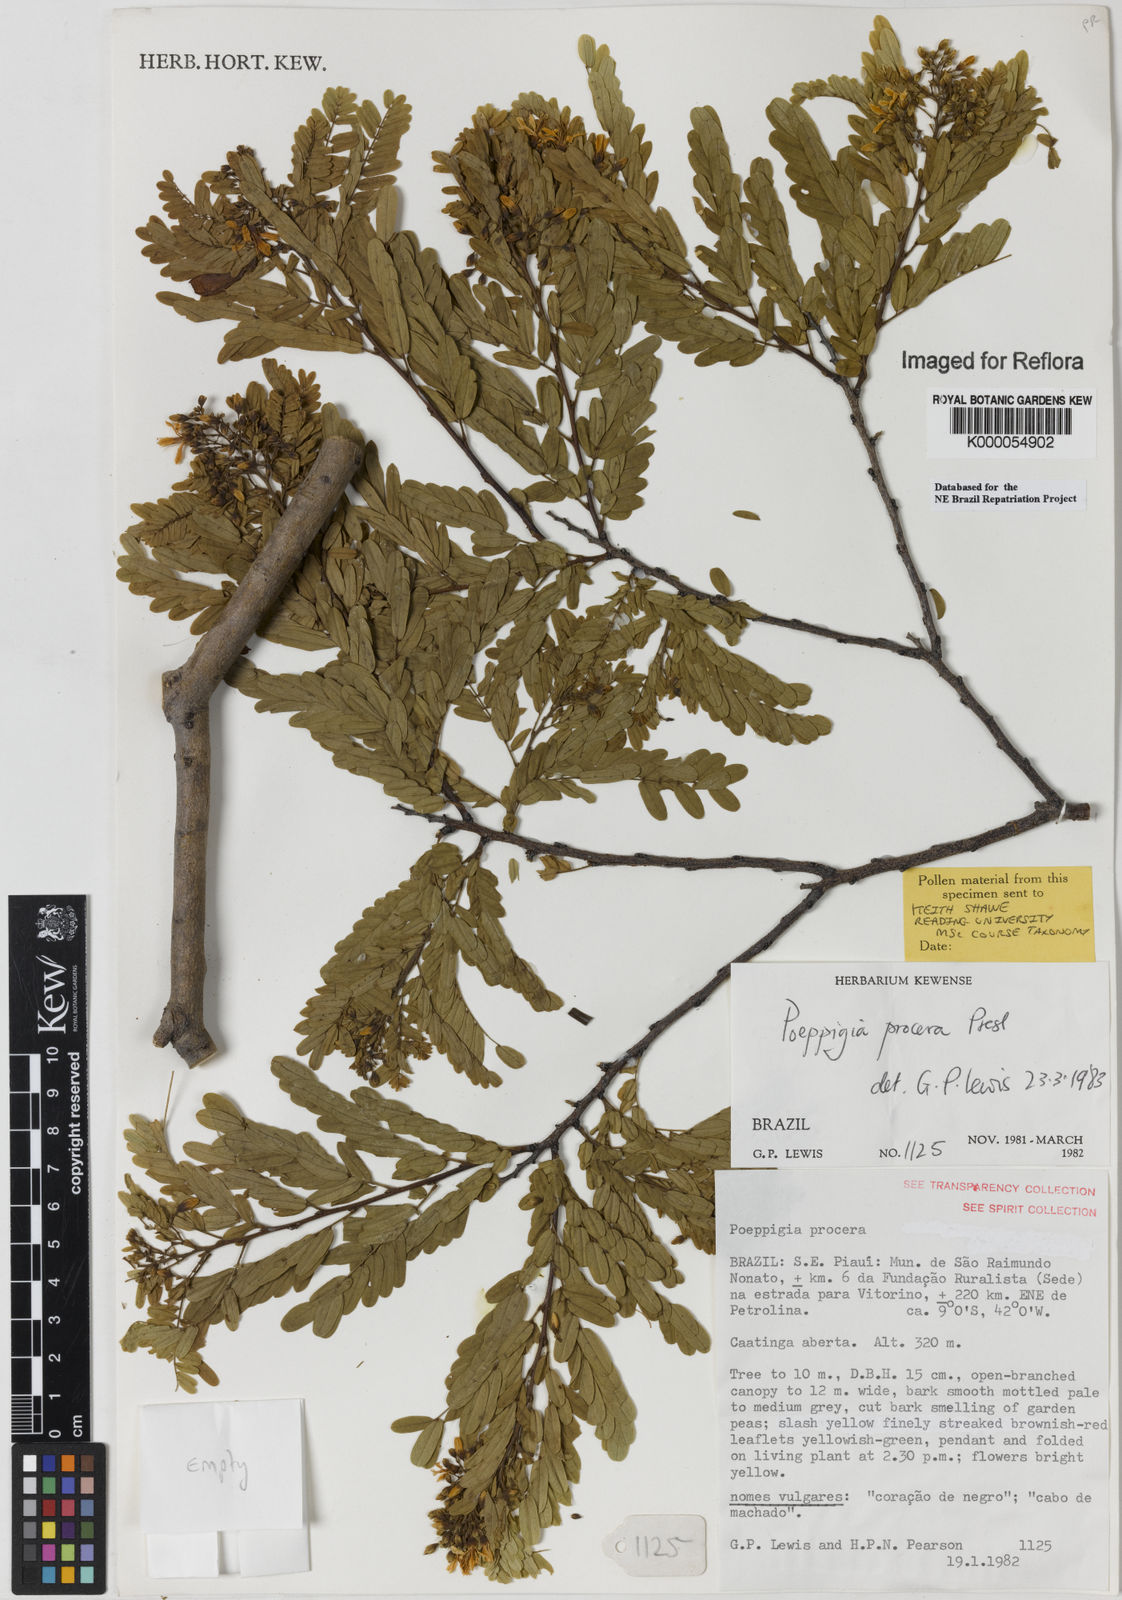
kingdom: Plantae
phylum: Tracheophyta
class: Magnoliopsida
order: Fabales
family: Fabaceae
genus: Poeppigia
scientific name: Poeppigia procera
